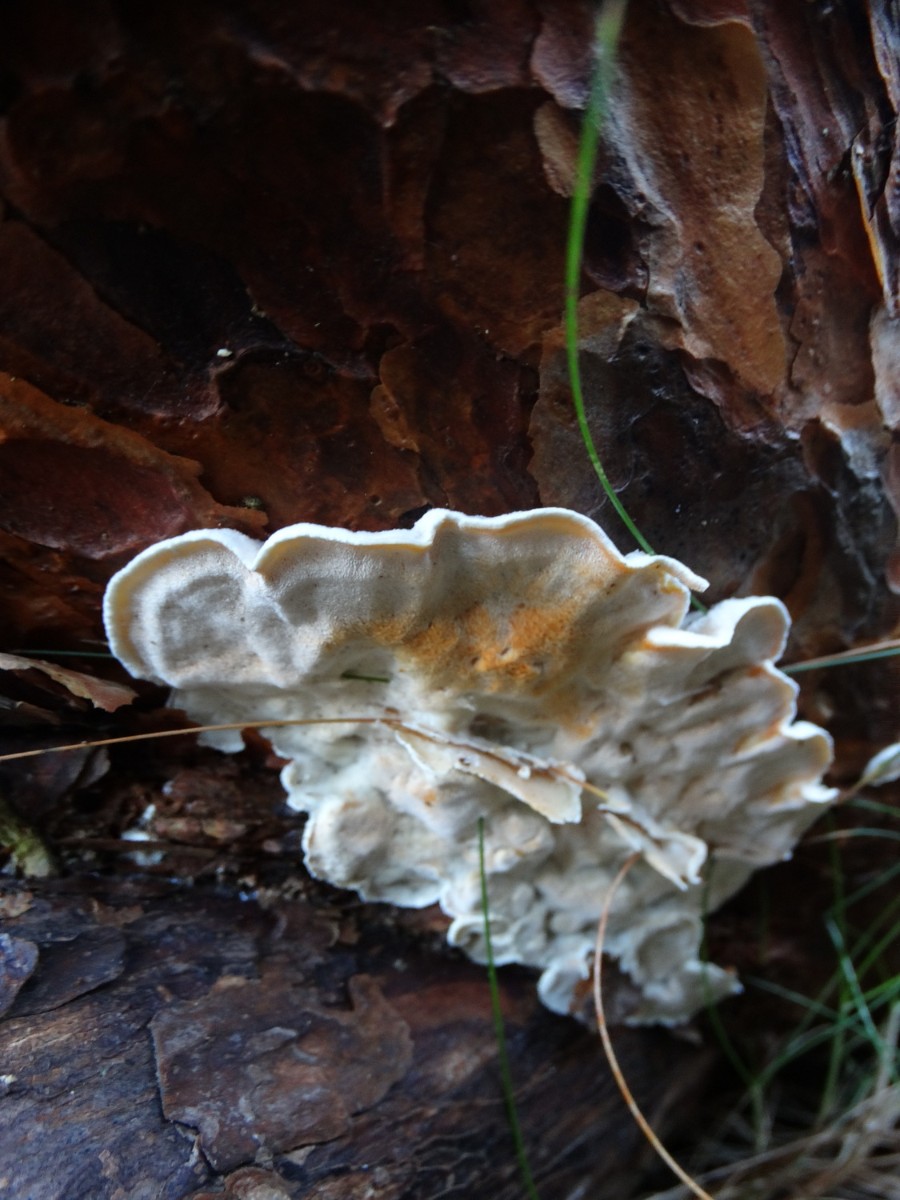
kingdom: Fungi
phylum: Basidiomycota
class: Agaricomycetes
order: Polyporales
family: Incrustoporiaceae
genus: Skeletocutis
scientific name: Skeletocutis amorpha
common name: orange krystalporesvamp
